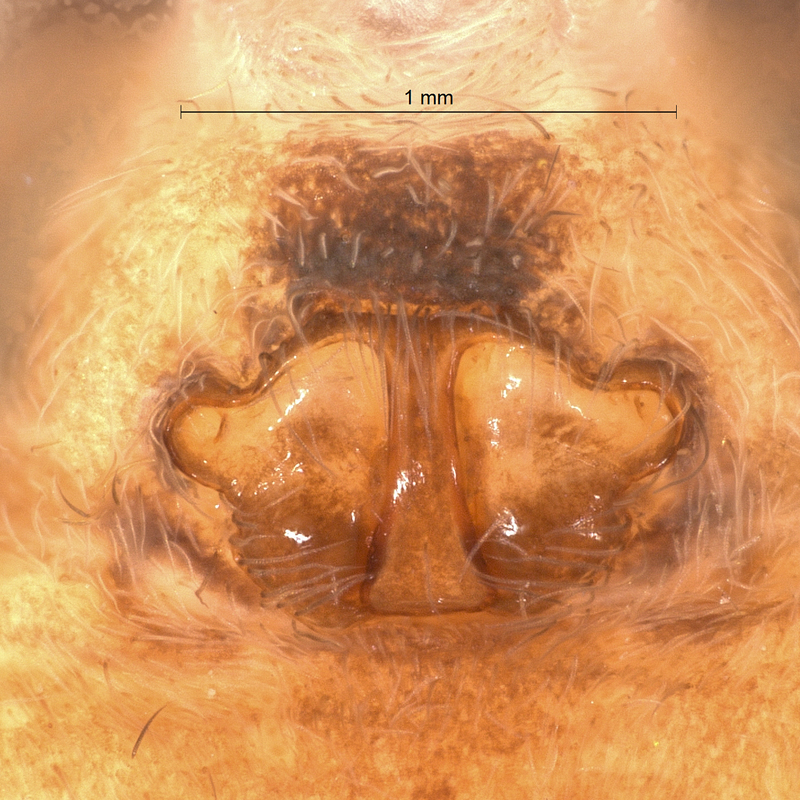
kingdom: Animalia
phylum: Arthropoda
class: Arachnida
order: Araneae
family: Lycosidae
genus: Pardosa
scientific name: Pardosa pullata
